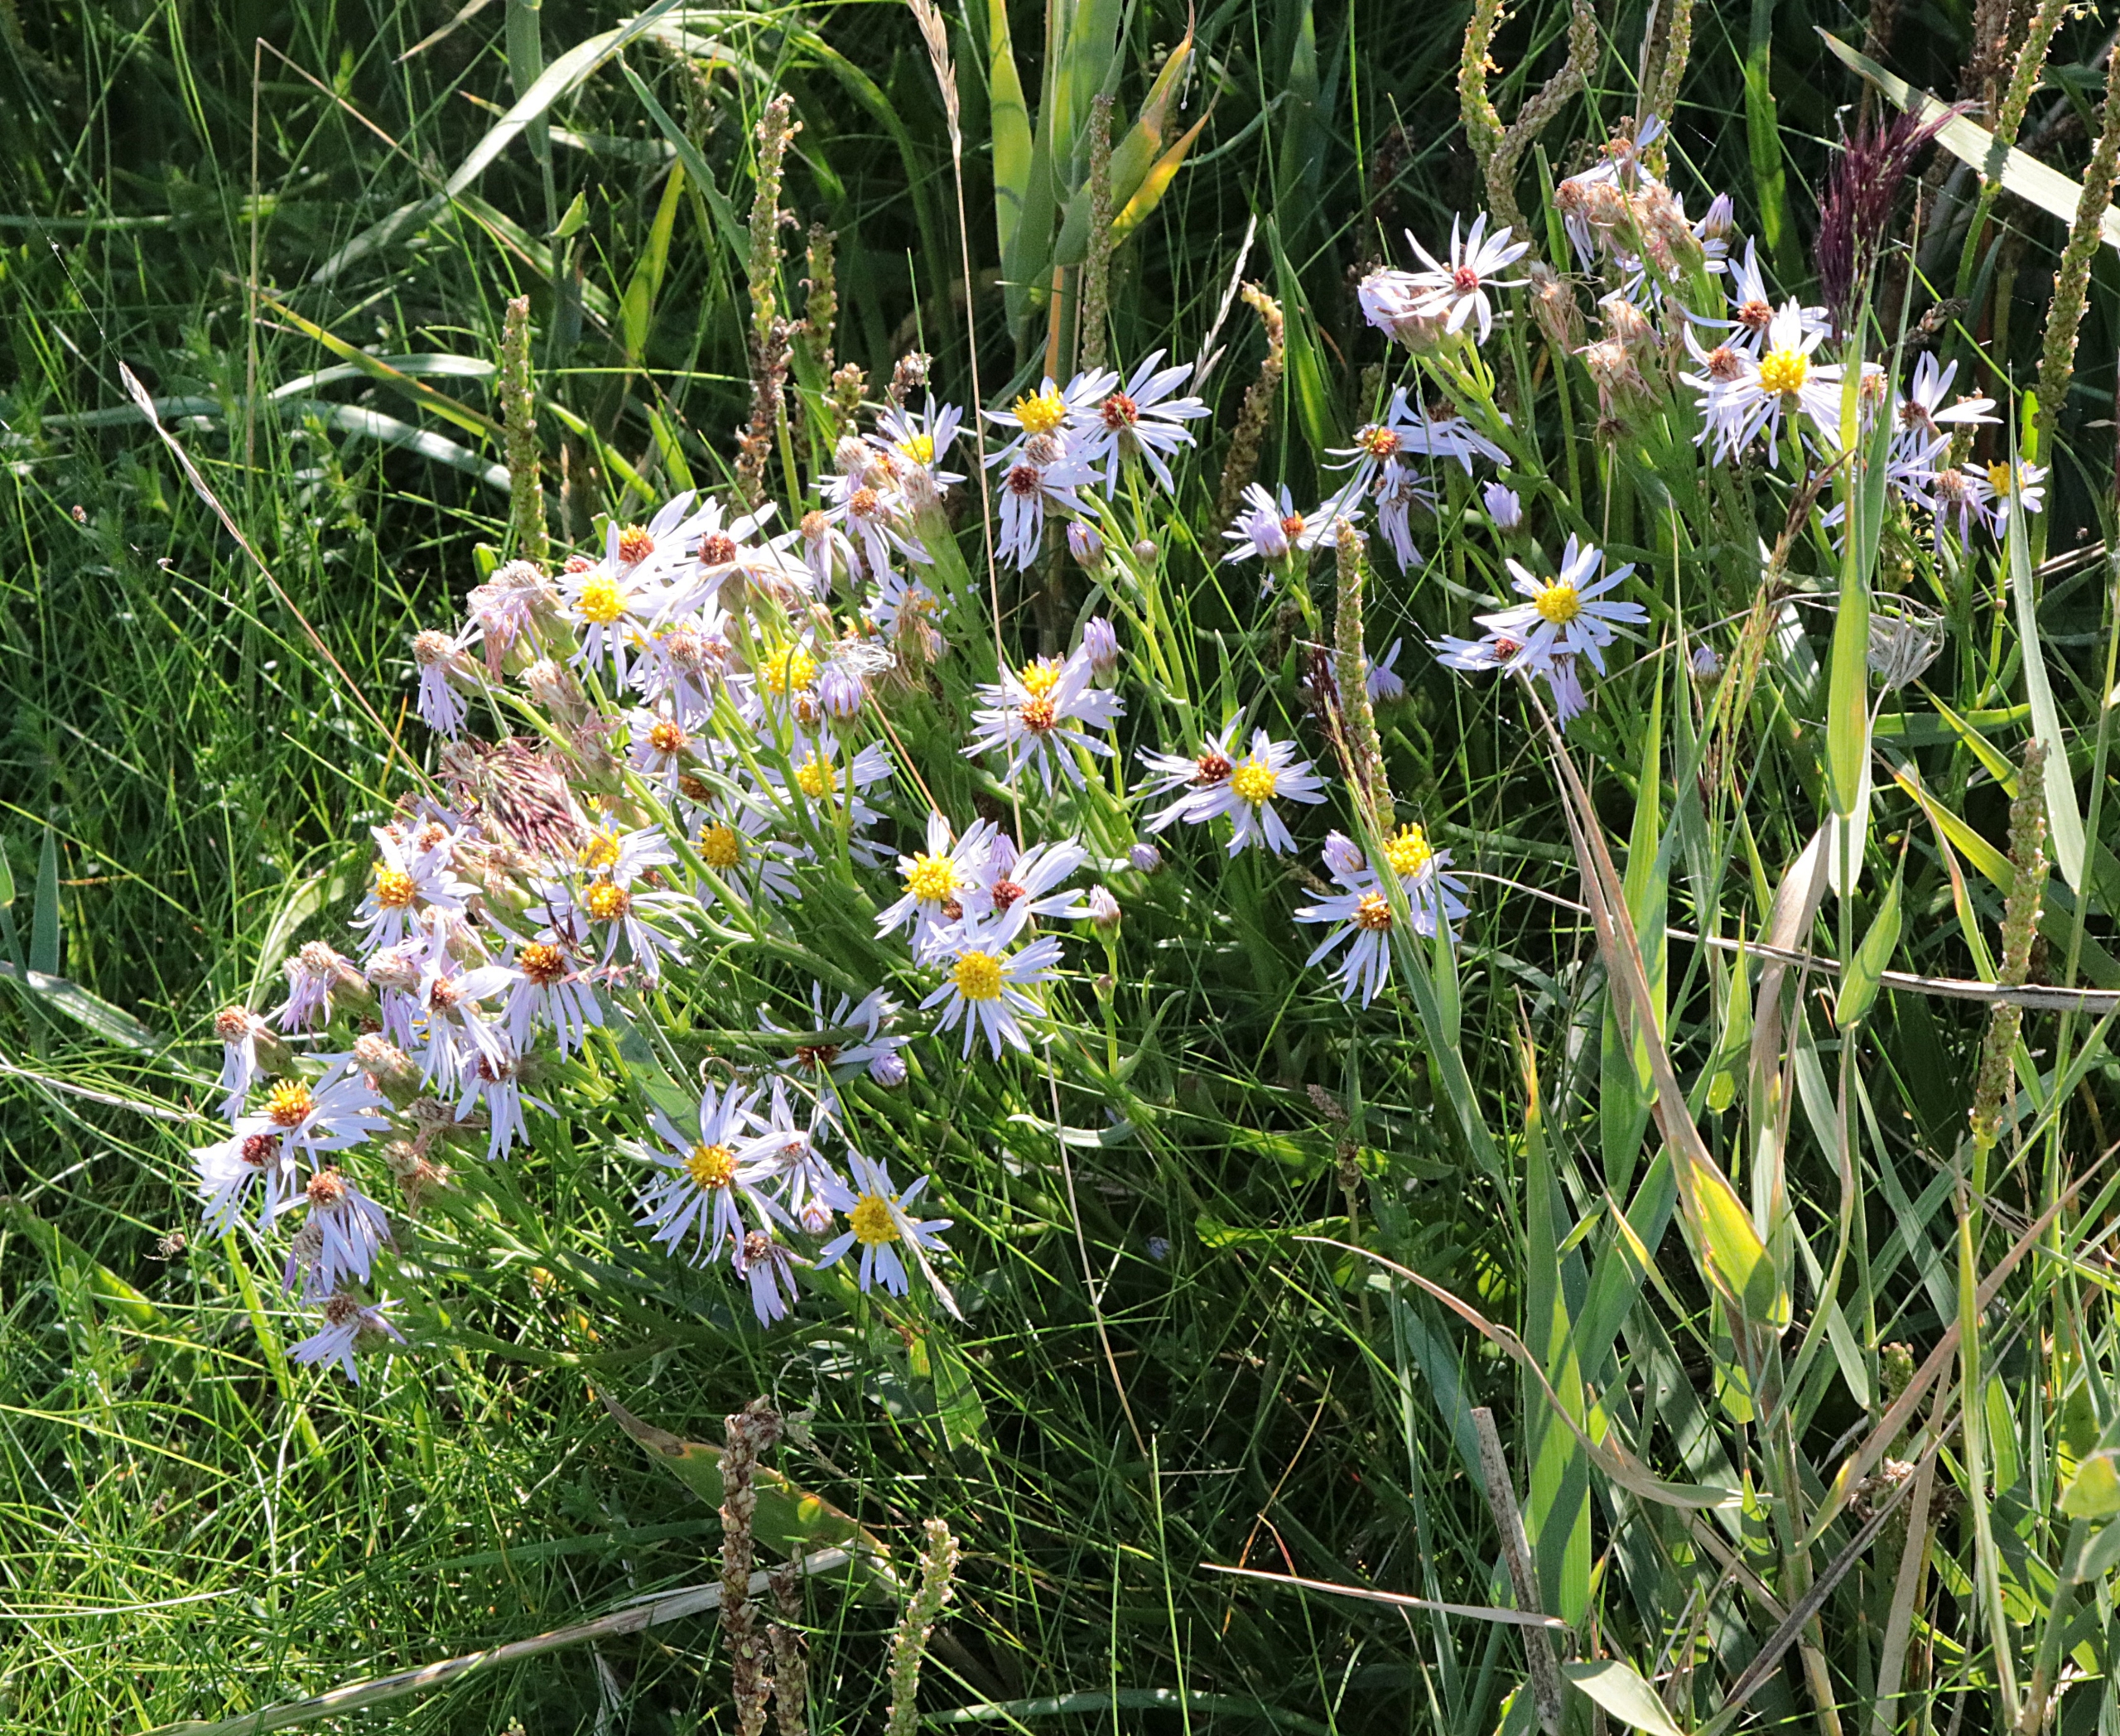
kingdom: Plantae
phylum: Tracheophyta
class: Magnoliopsida
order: Asterales
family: Asteraceae
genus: Tripolium
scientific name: Tripolium pannonicum
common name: Strandasters
